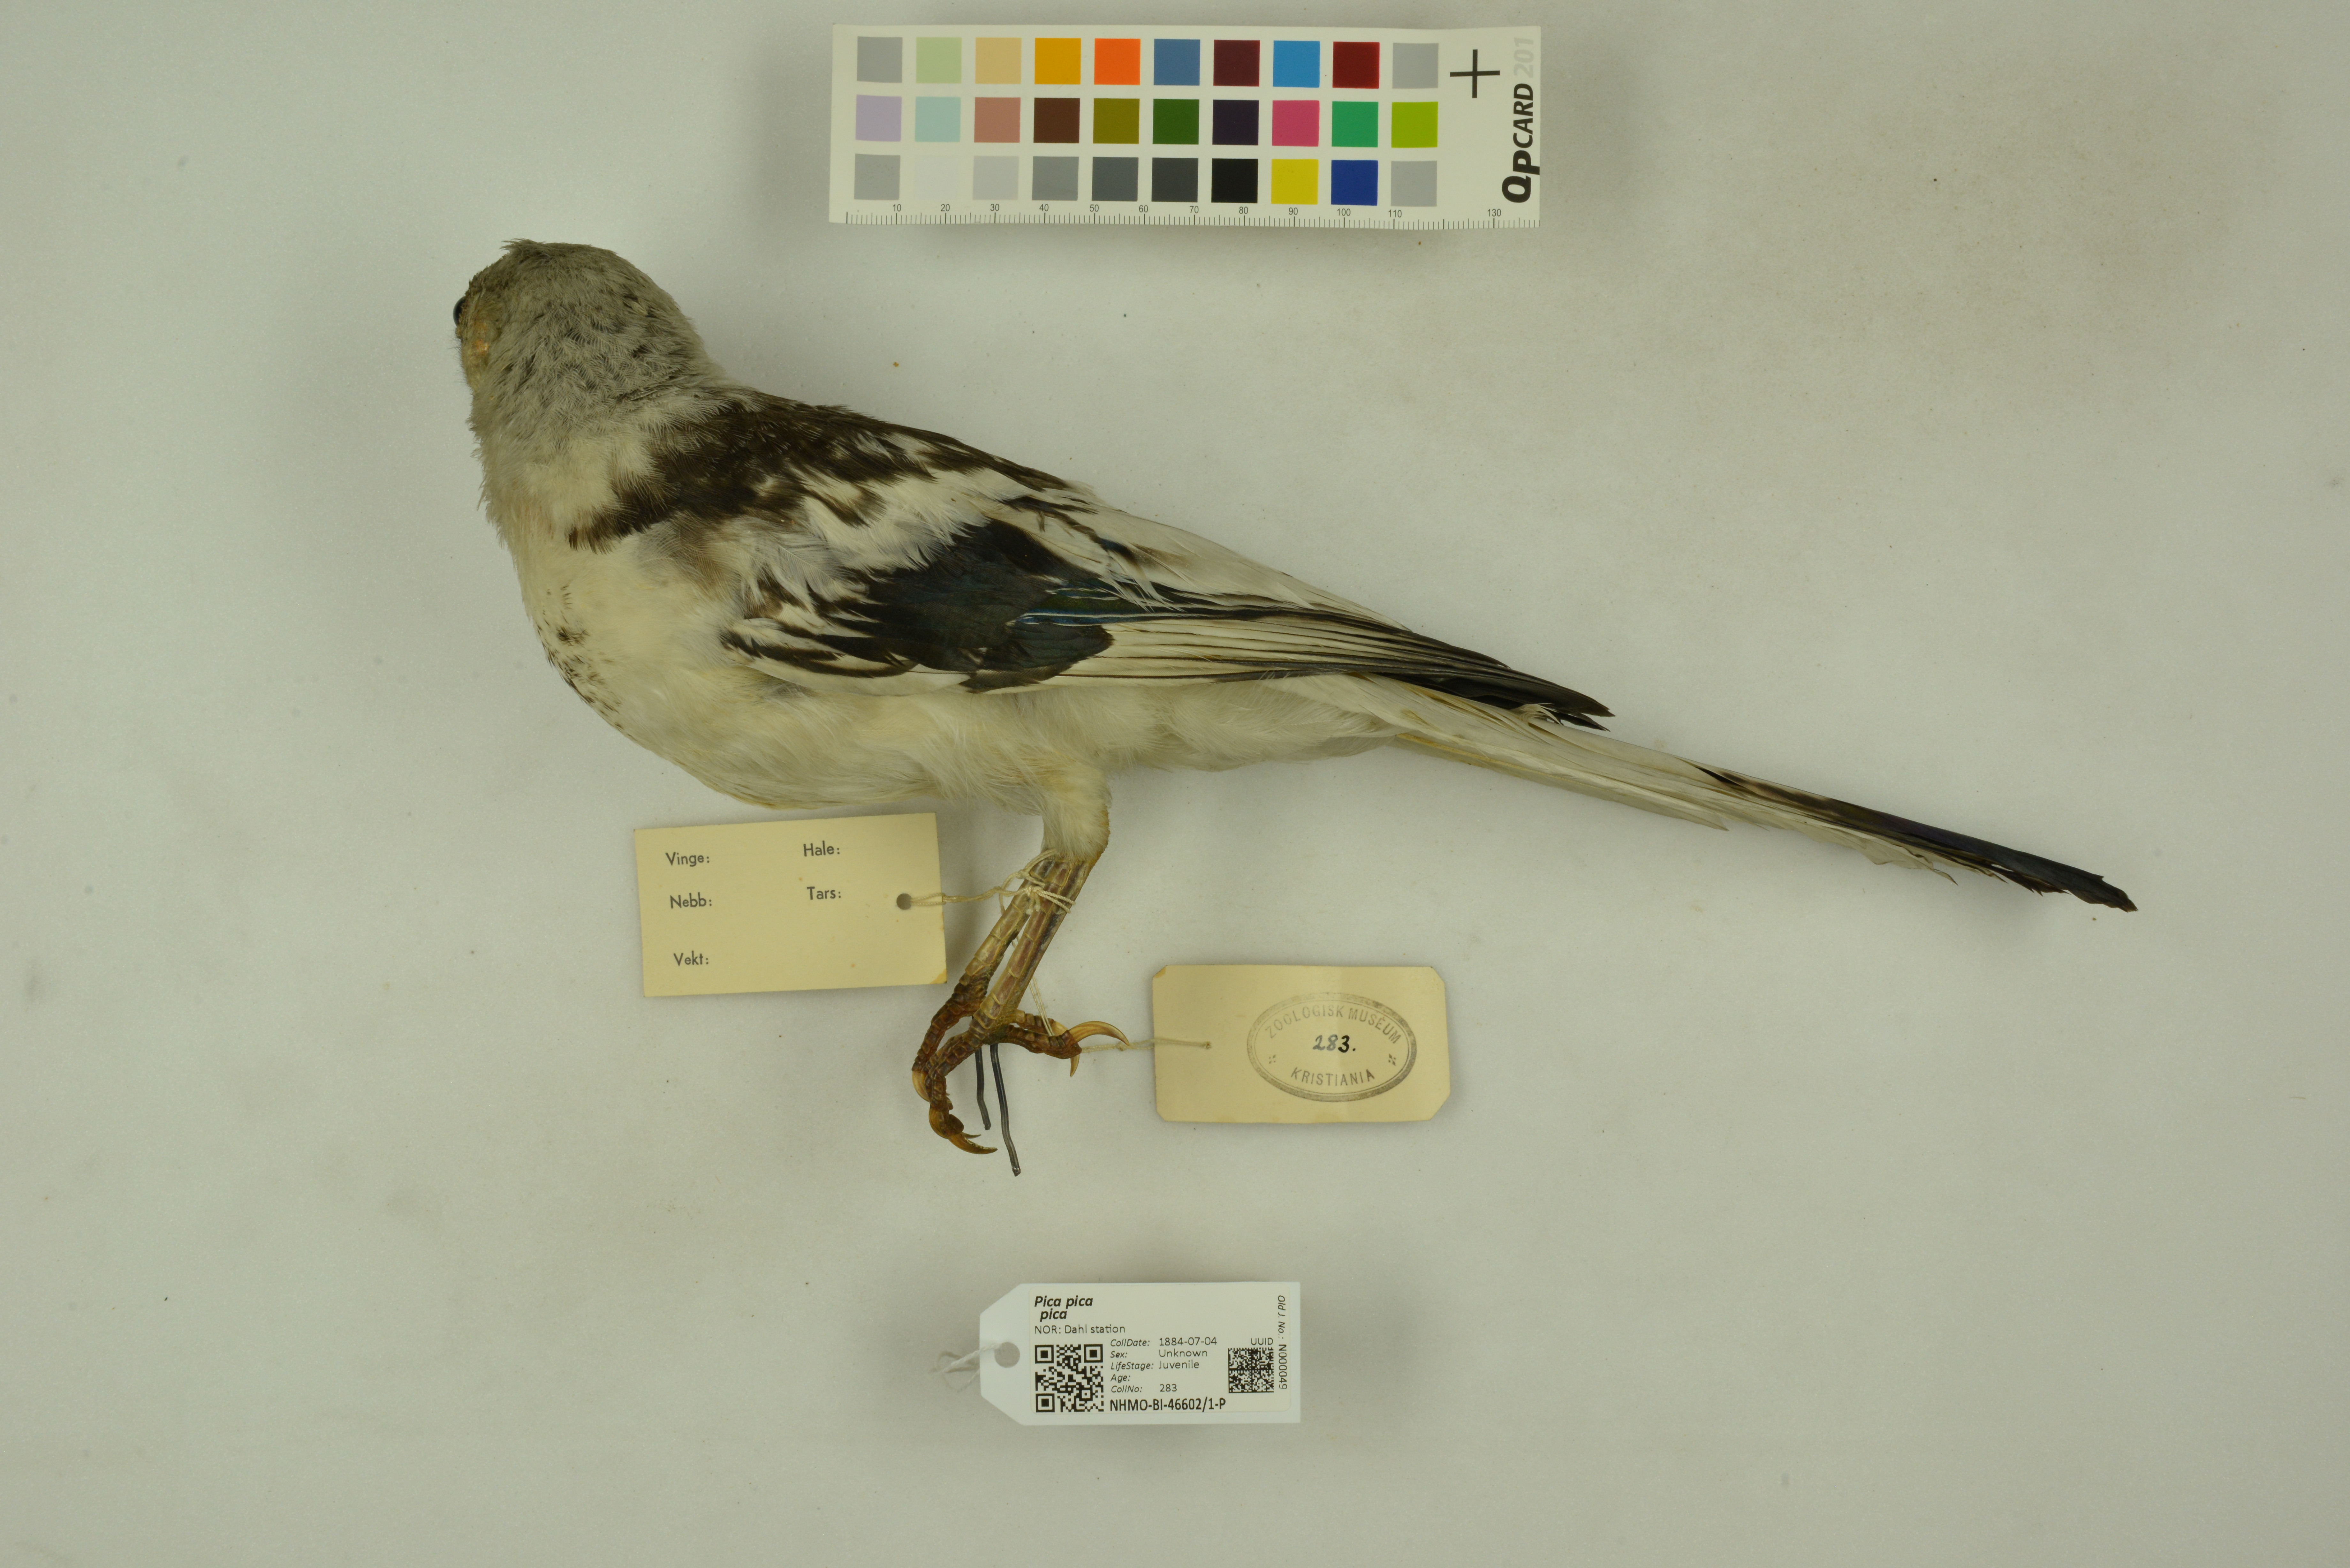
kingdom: Animalia
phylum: Chordata
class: Aves
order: Passeriformes
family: Corvidae
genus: Pica
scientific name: Pica pica
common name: Eurasian magpie
